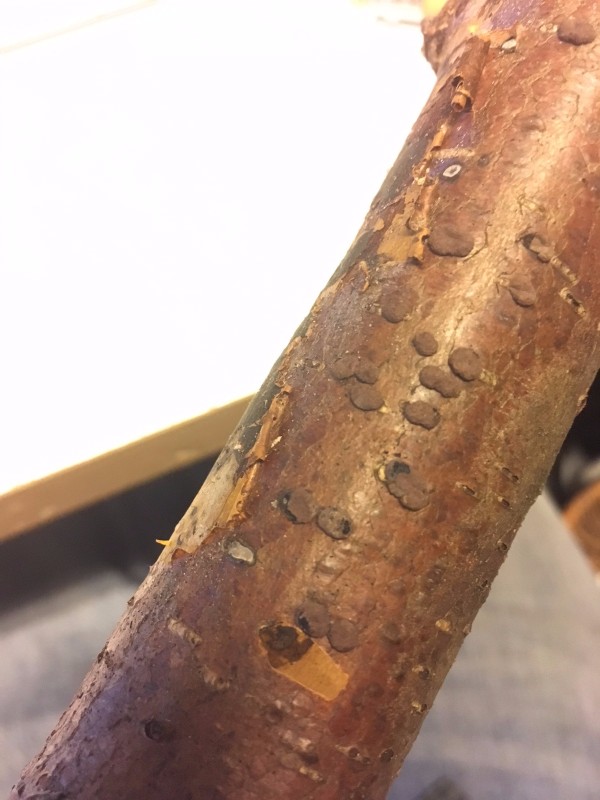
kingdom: Fungi
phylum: Ascomycota
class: Sordariomycetes
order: Xylariales
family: Hypoxylaceae
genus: Hypoxylon
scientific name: Hypoxylon fuscoides
